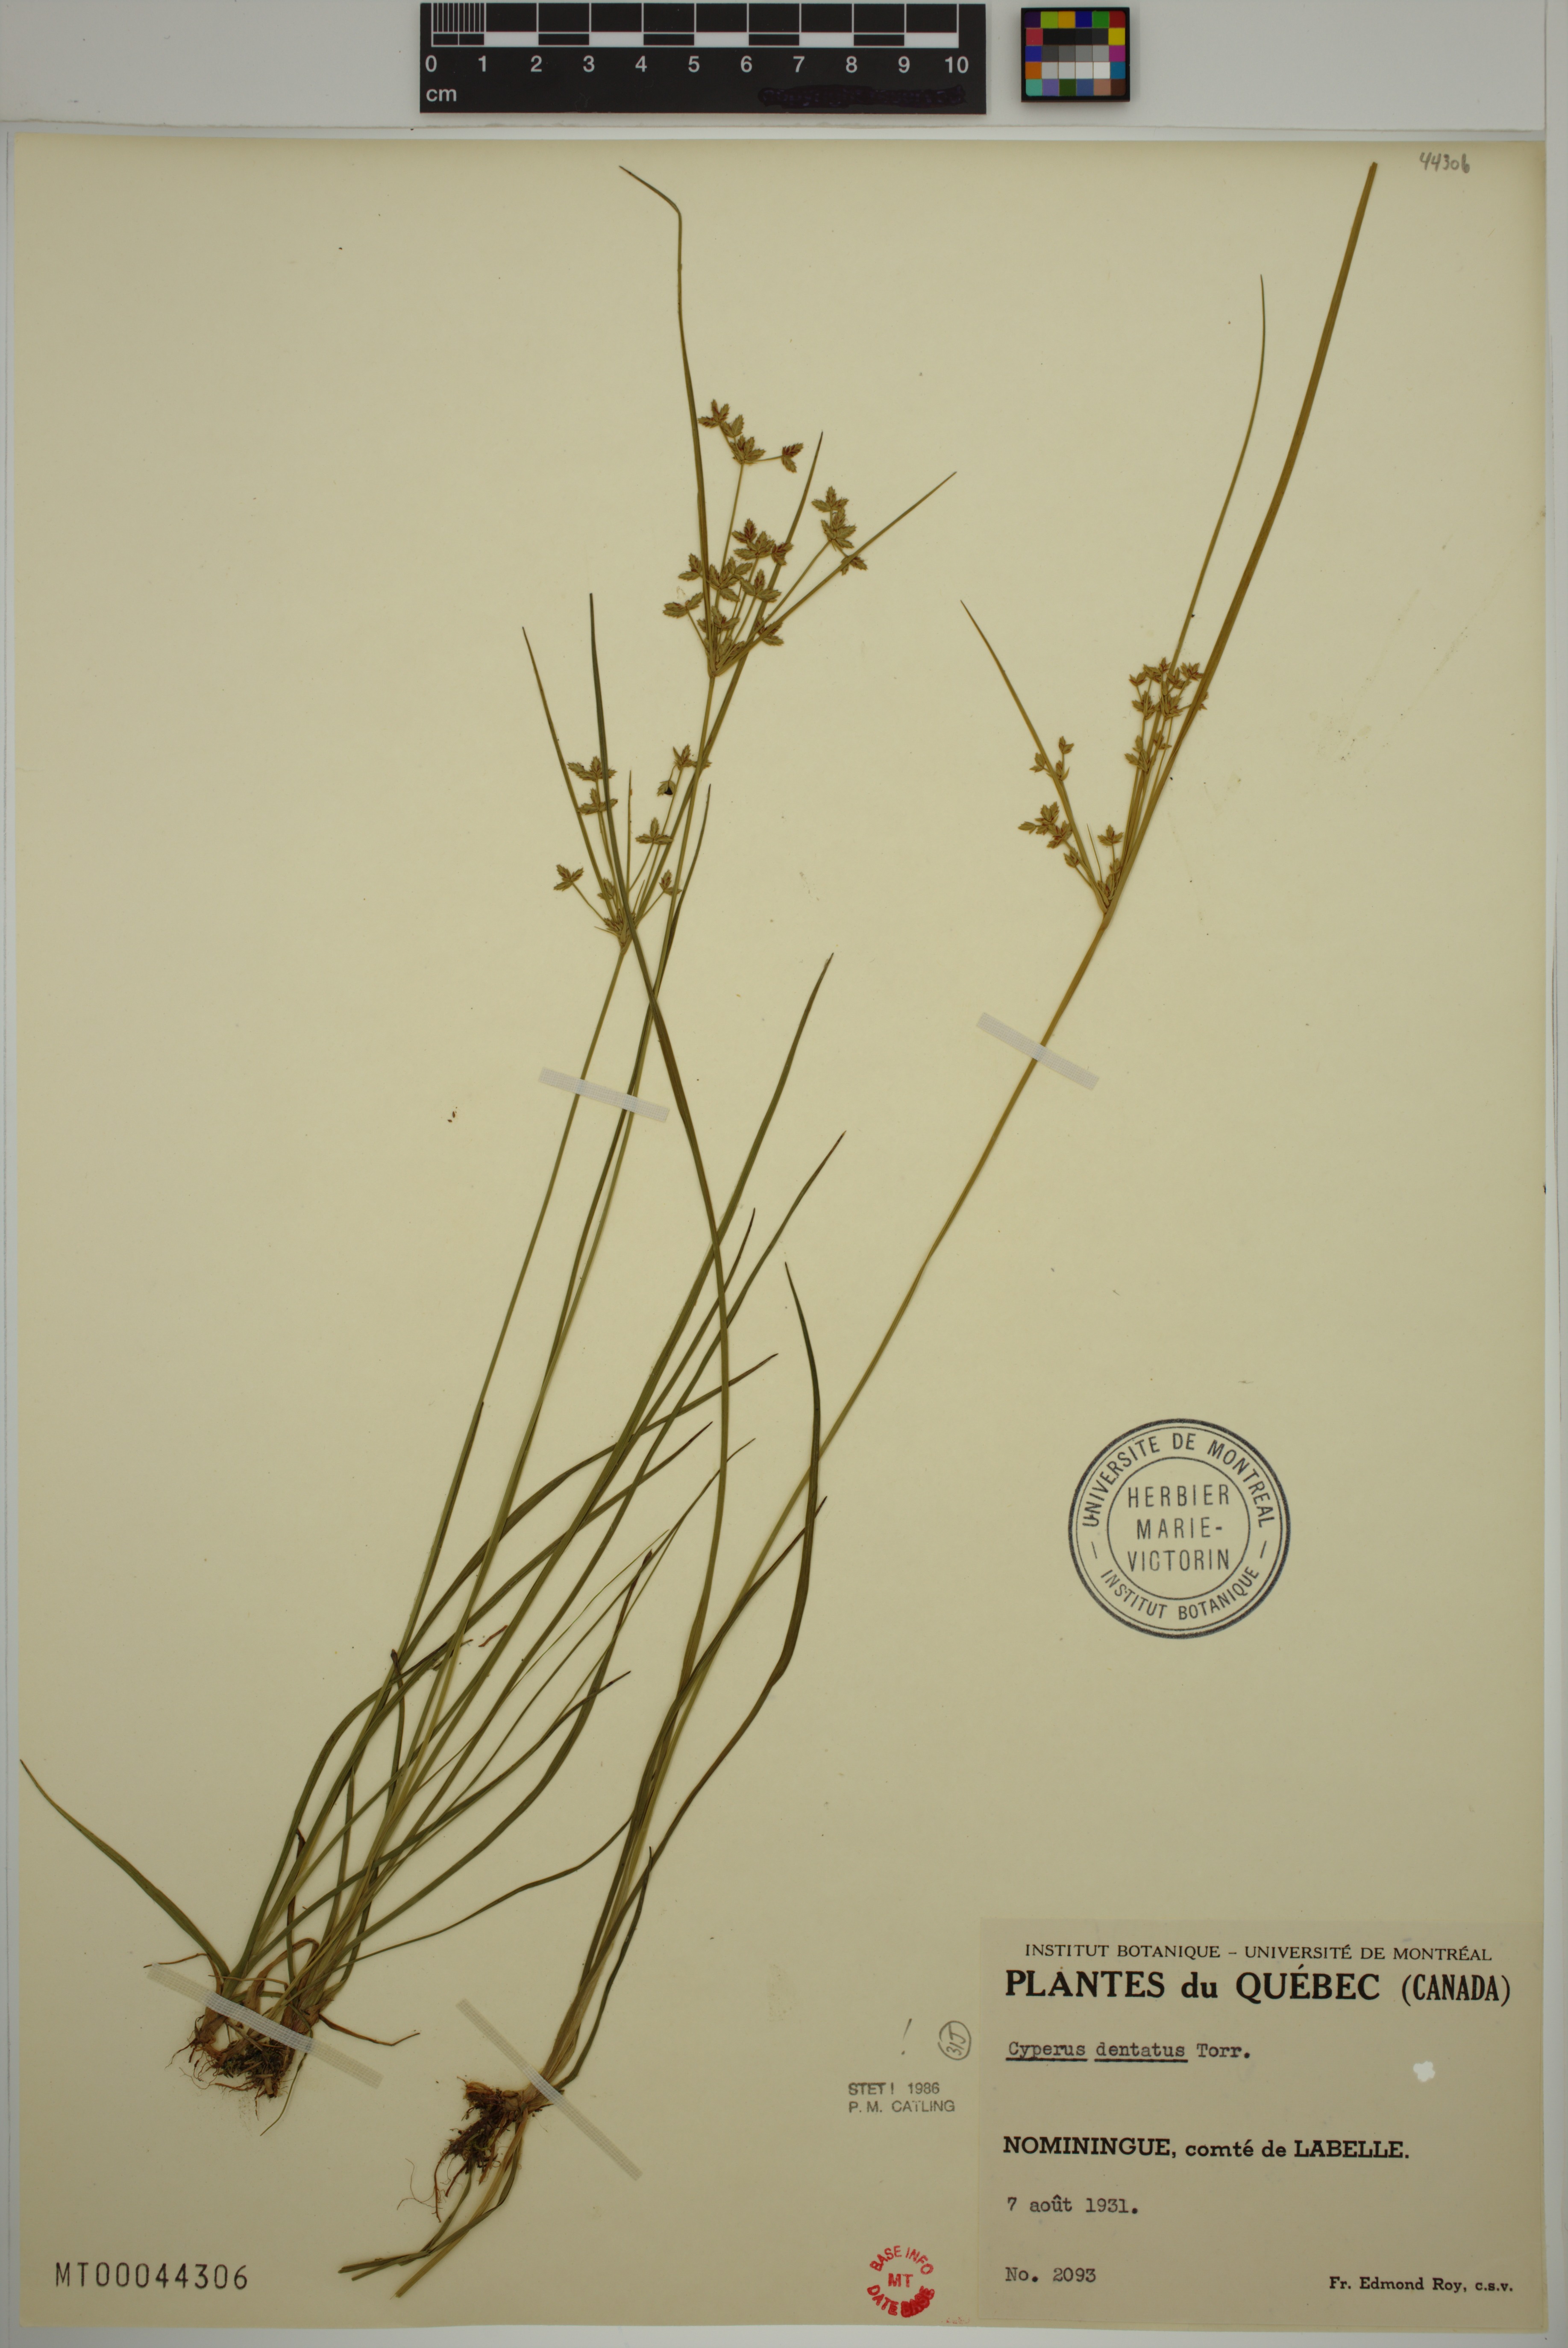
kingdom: Plantae
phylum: Tracheophyta
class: Liliopsida
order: Poales
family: Cyperaceae
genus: Cyperus
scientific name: Cyperus dentatus
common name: Dentate umbrella sedge
